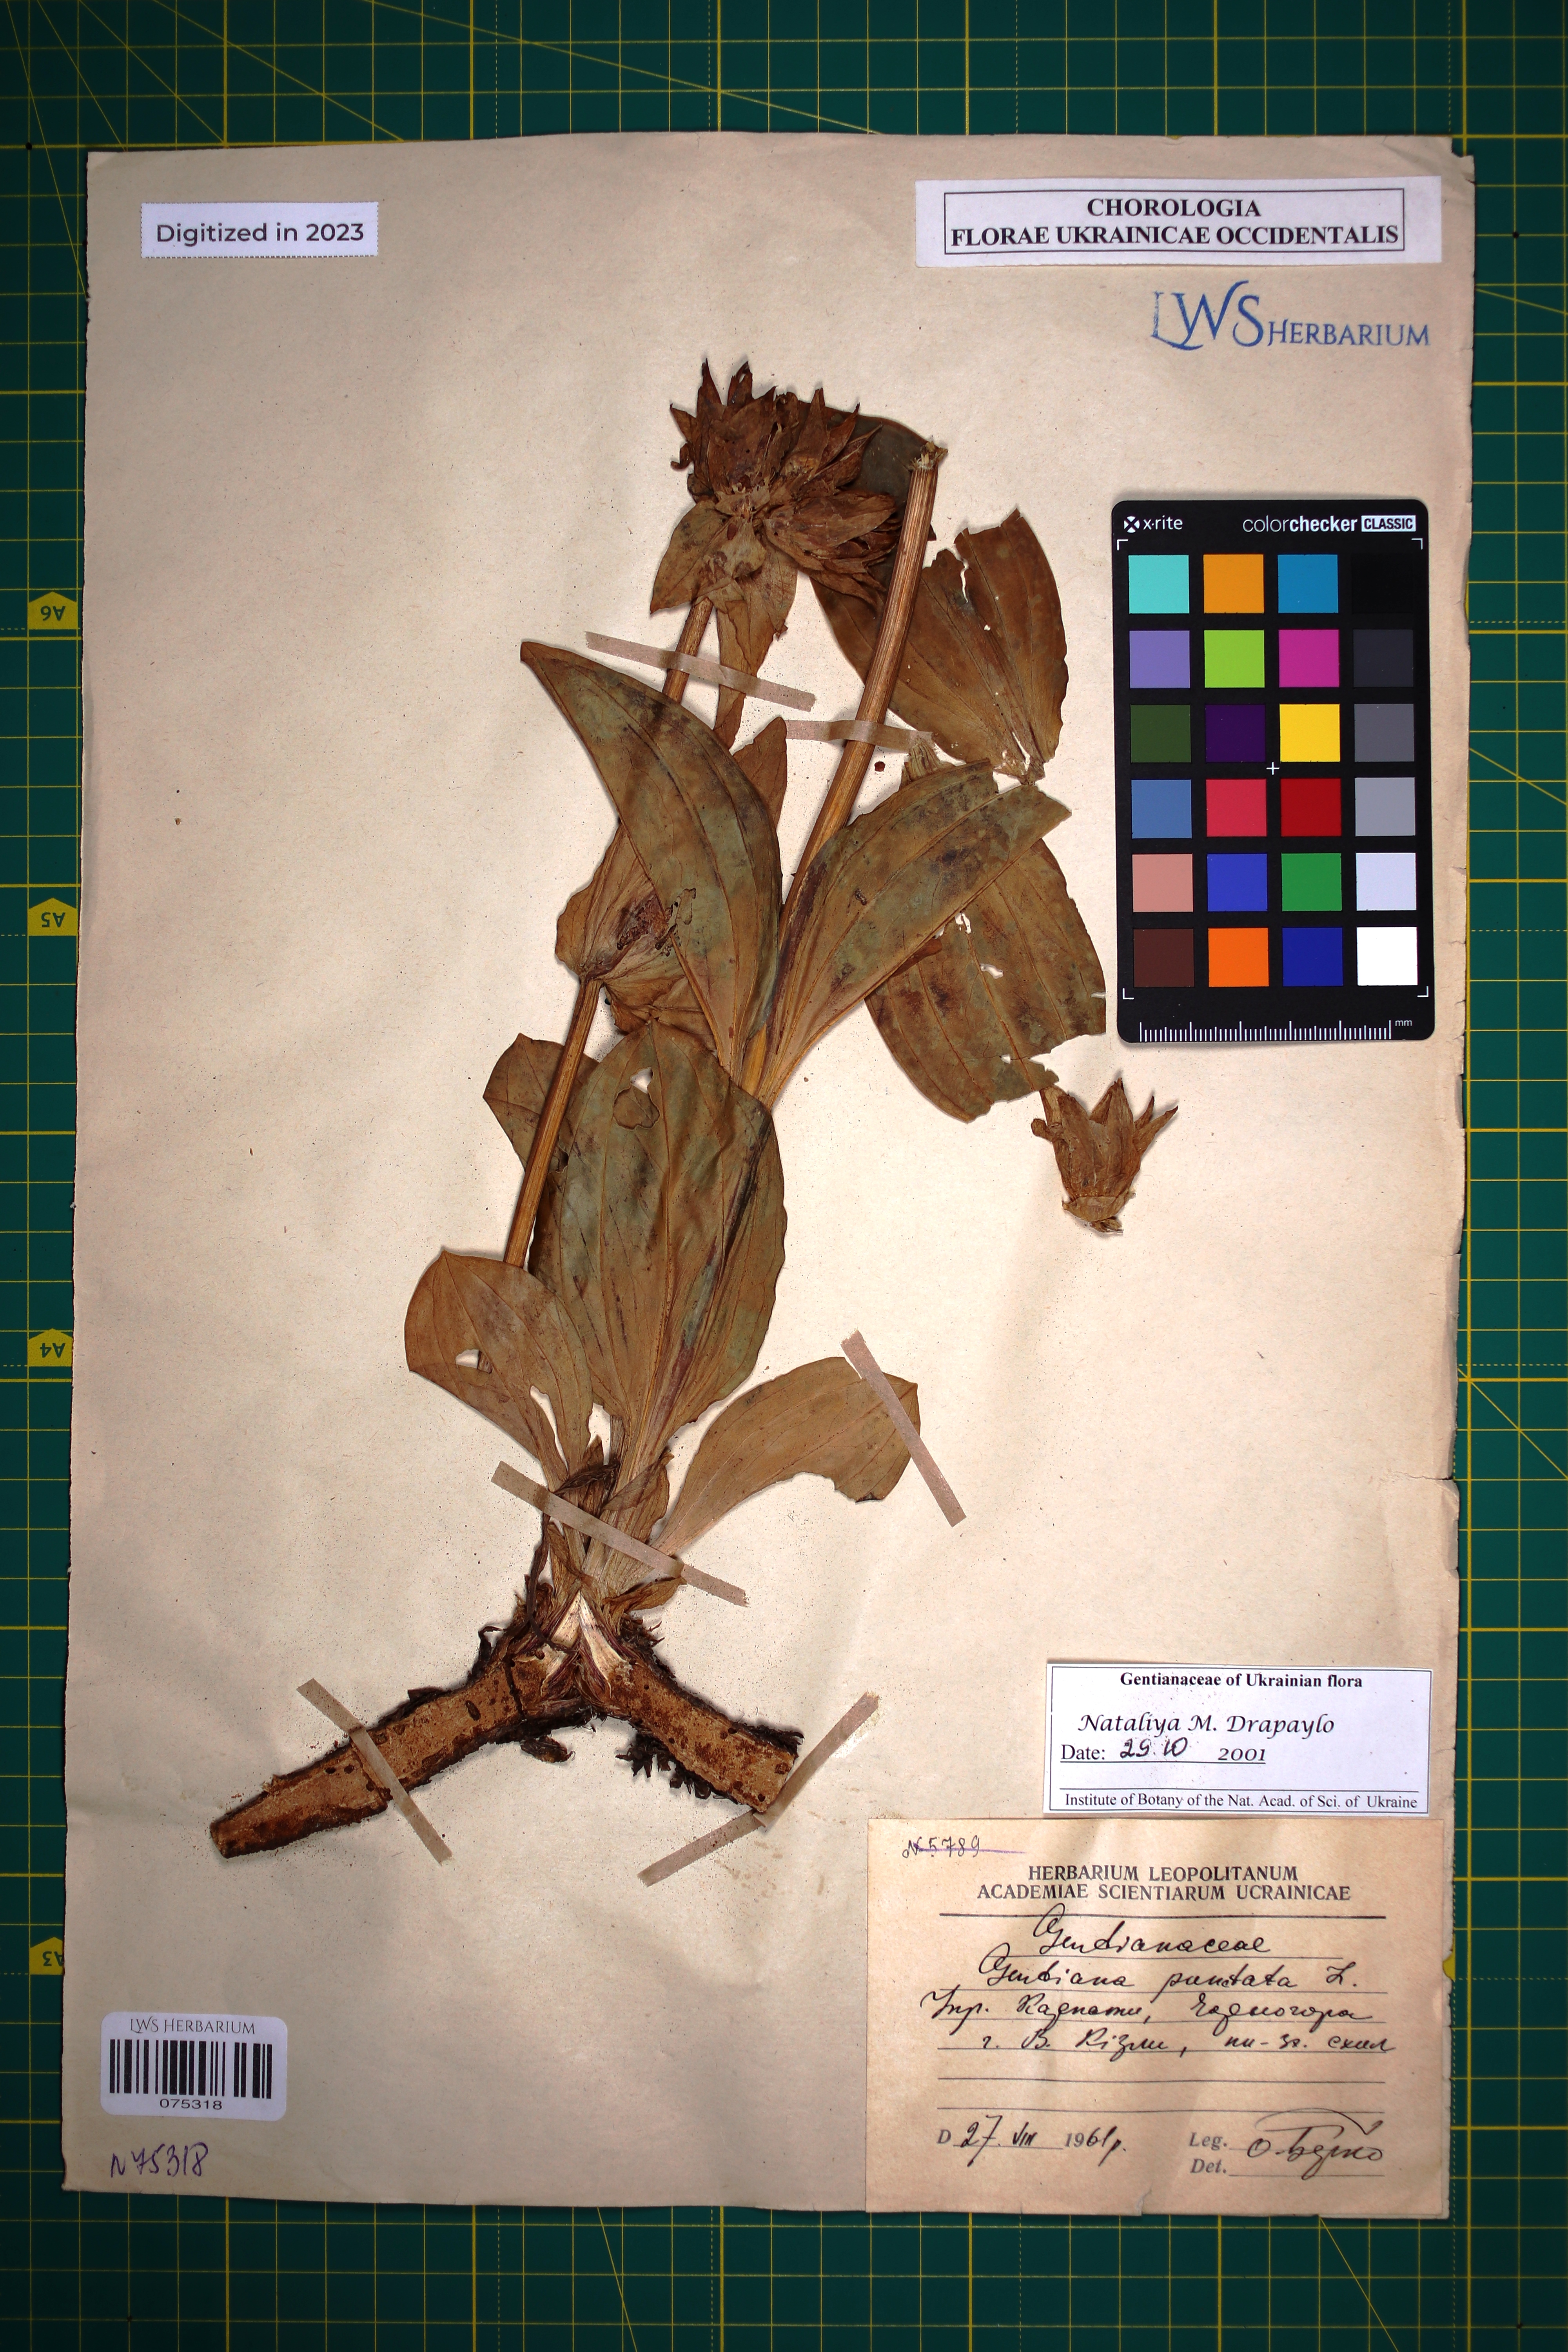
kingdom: Plantae
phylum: Tracheophyta
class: Magnoliopsida
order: Gentianales
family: Gentianaceae
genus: Gentiana
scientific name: Gentiana punctata
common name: Spotted gentian
